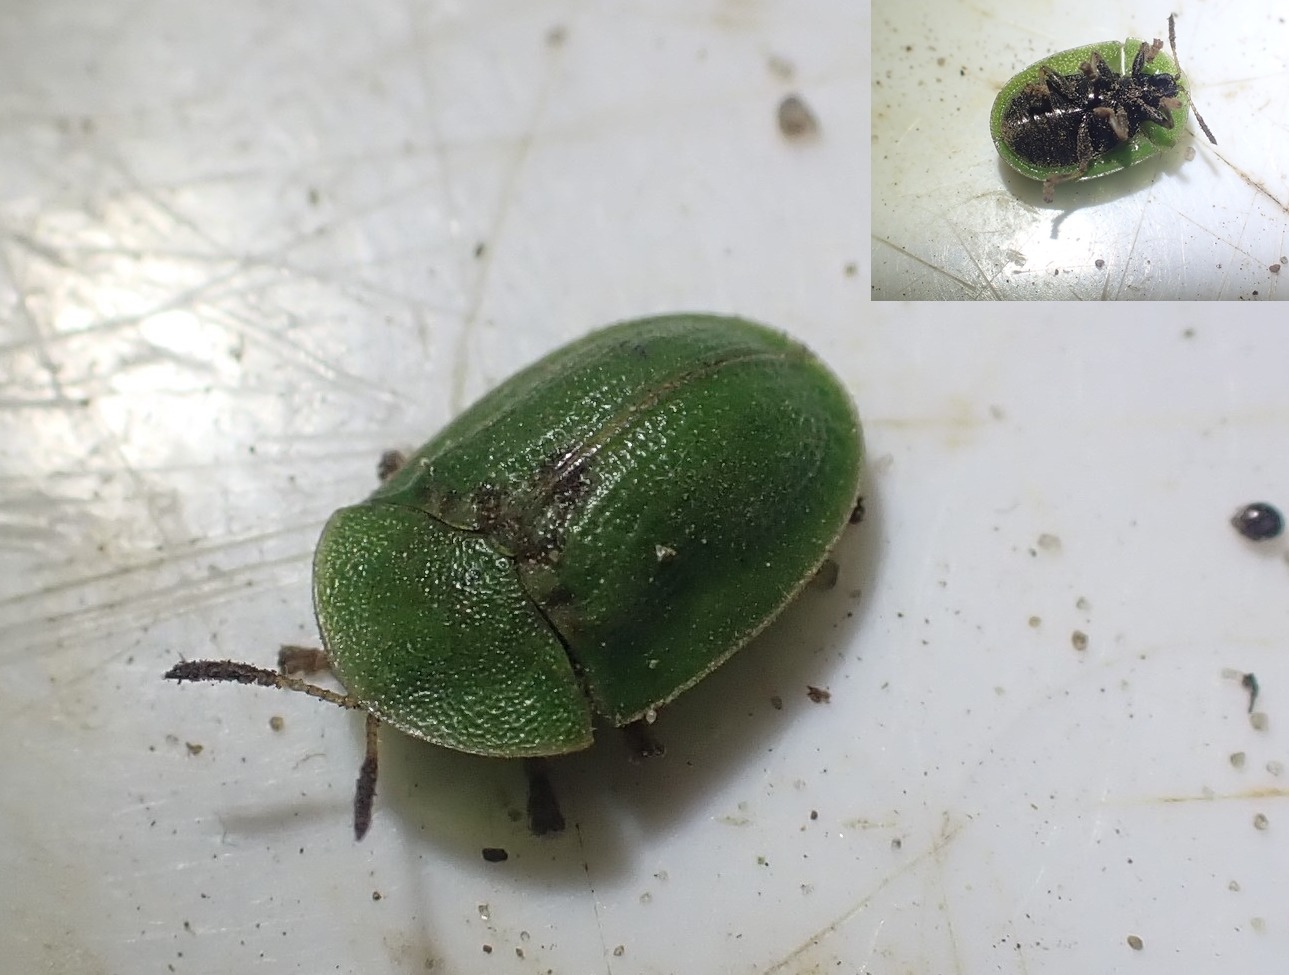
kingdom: Animalia
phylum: Arthropoda
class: Insecta
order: Coleoptera
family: Chrysomelidae
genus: Cassida
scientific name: Cassida rubiginosa
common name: Tidselskjoldbille
